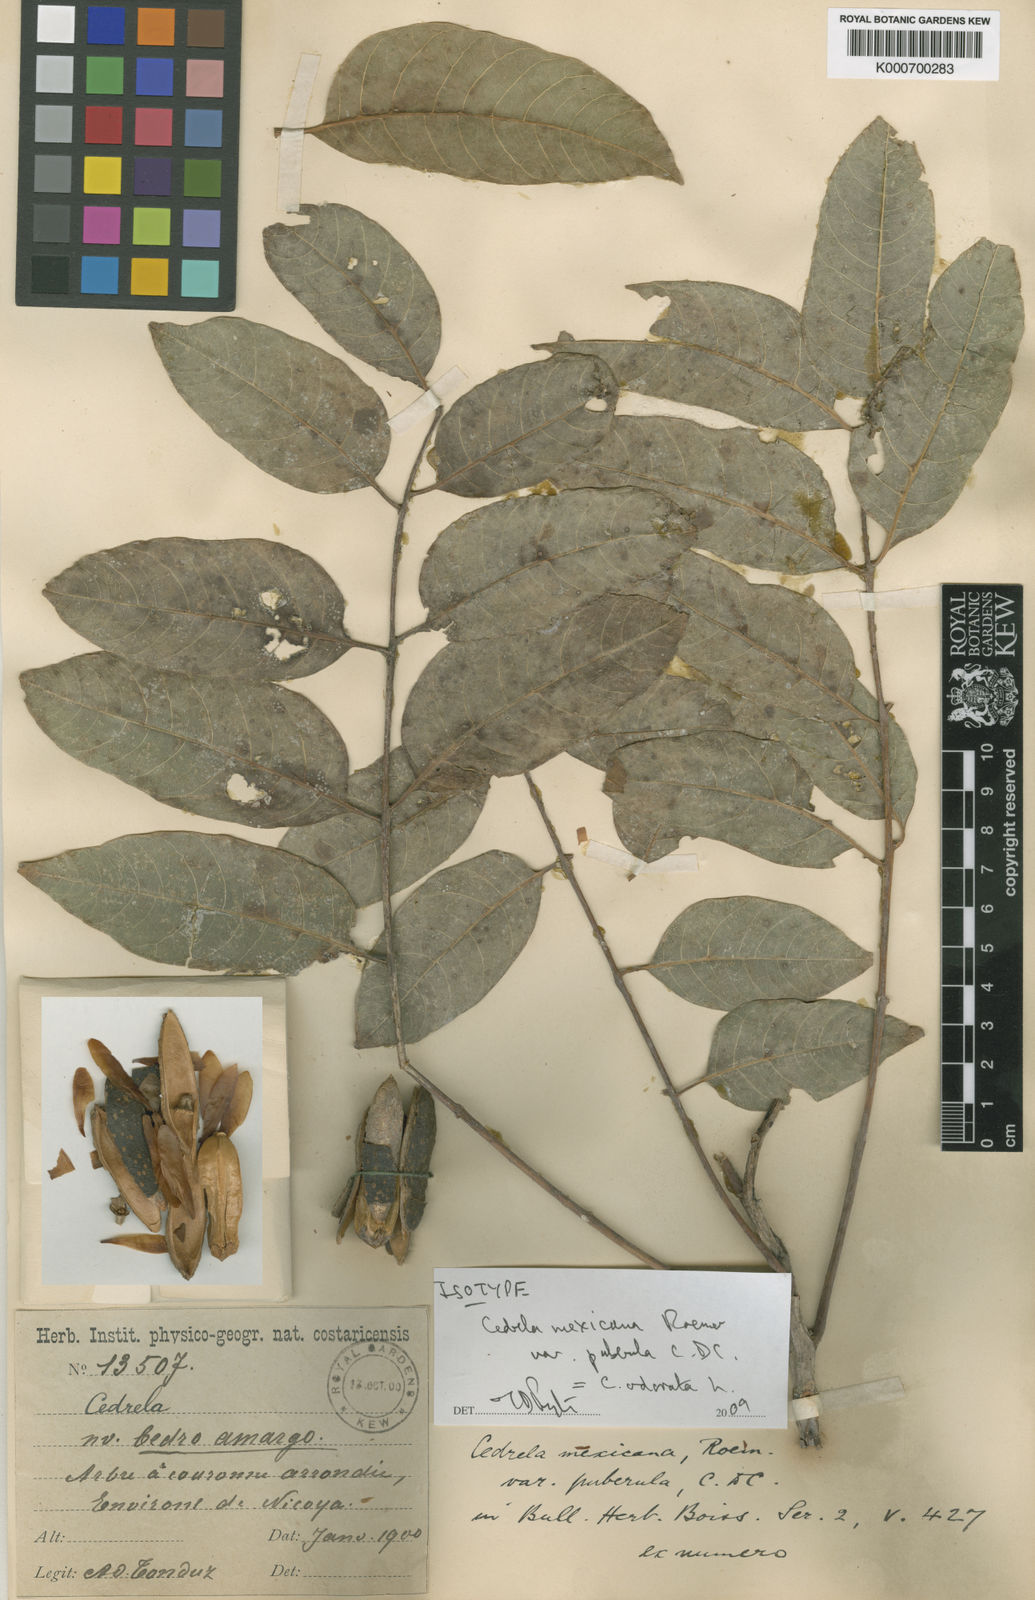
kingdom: Plantae
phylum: Tracheophyta
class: Magnoliopsida
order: Sapindales
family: Meliaceae
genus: Cedrela
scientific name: Cedrela odorata
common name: Red cedar
